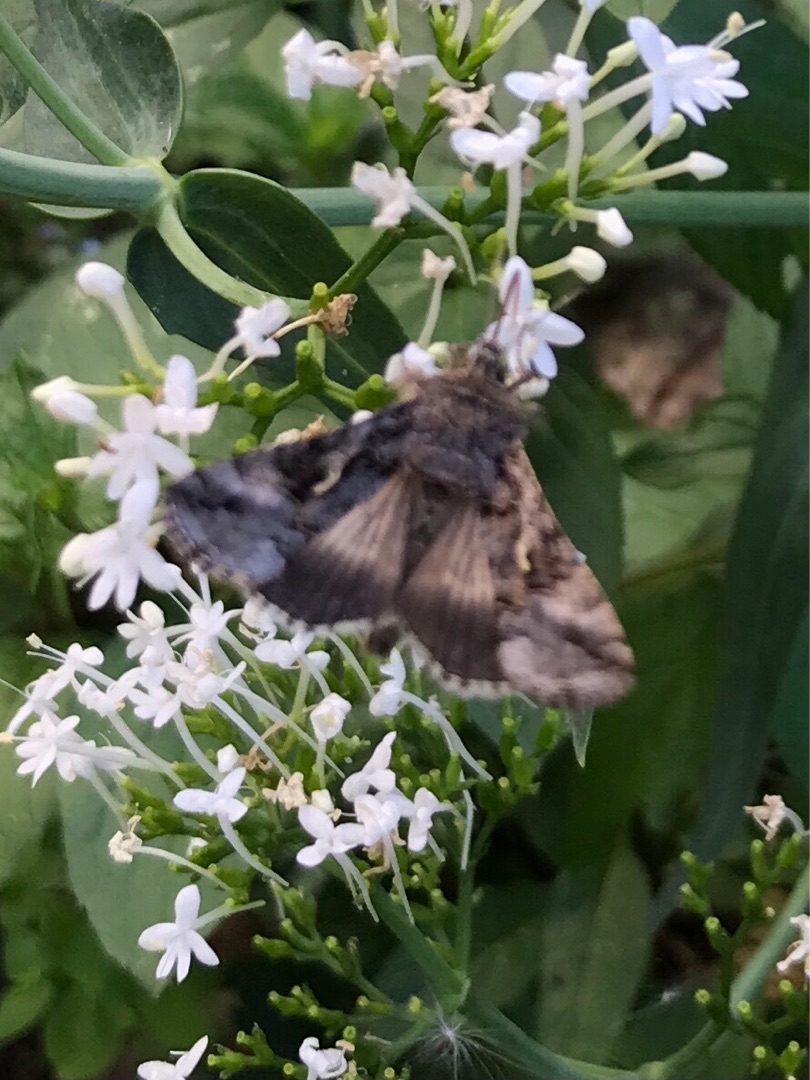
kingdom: Animalia
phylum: Arthropoda
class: Insecta
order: Lepidoptera
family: Noctuidae
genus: Autographa
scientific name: Autographa gamma
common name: Gammaugle
